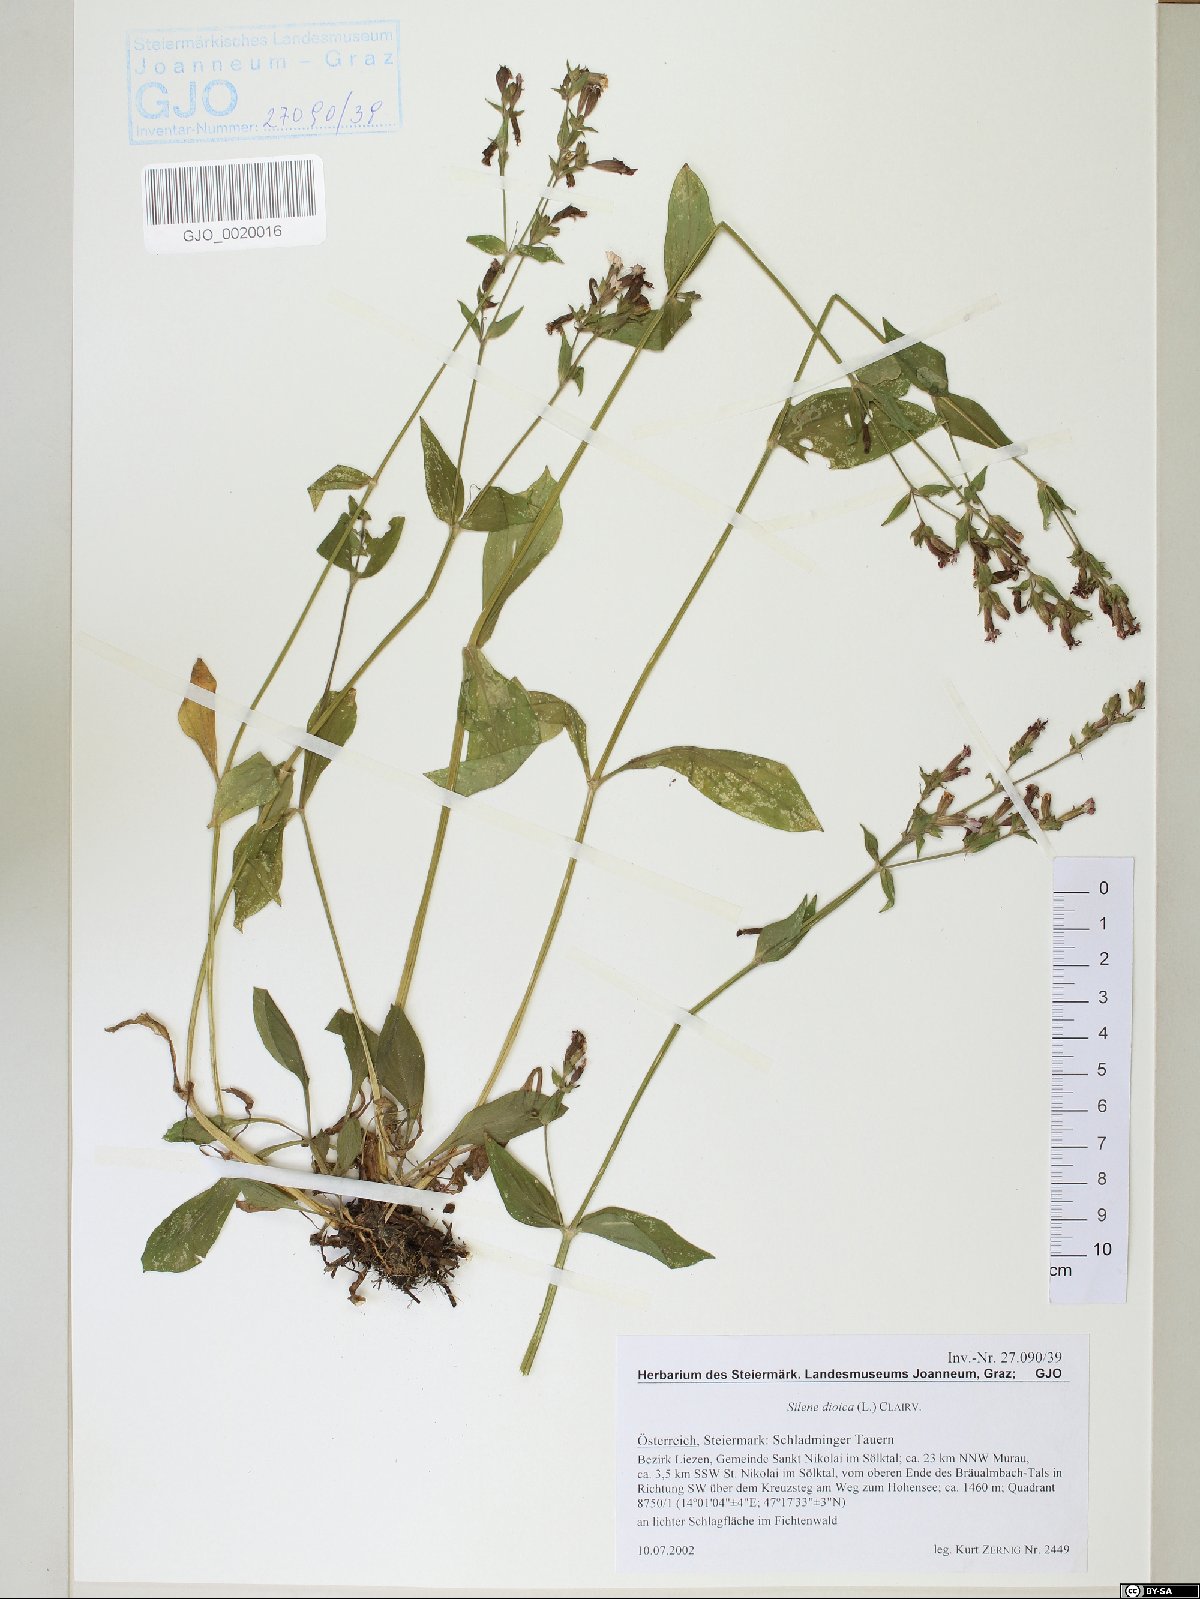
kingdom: Plantae
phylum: Tracheophyta
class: Magnoliopsida
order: Caryophyllales
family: Caryophyllaceae
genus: Silene
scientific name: Silene dioica
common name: Red campion
